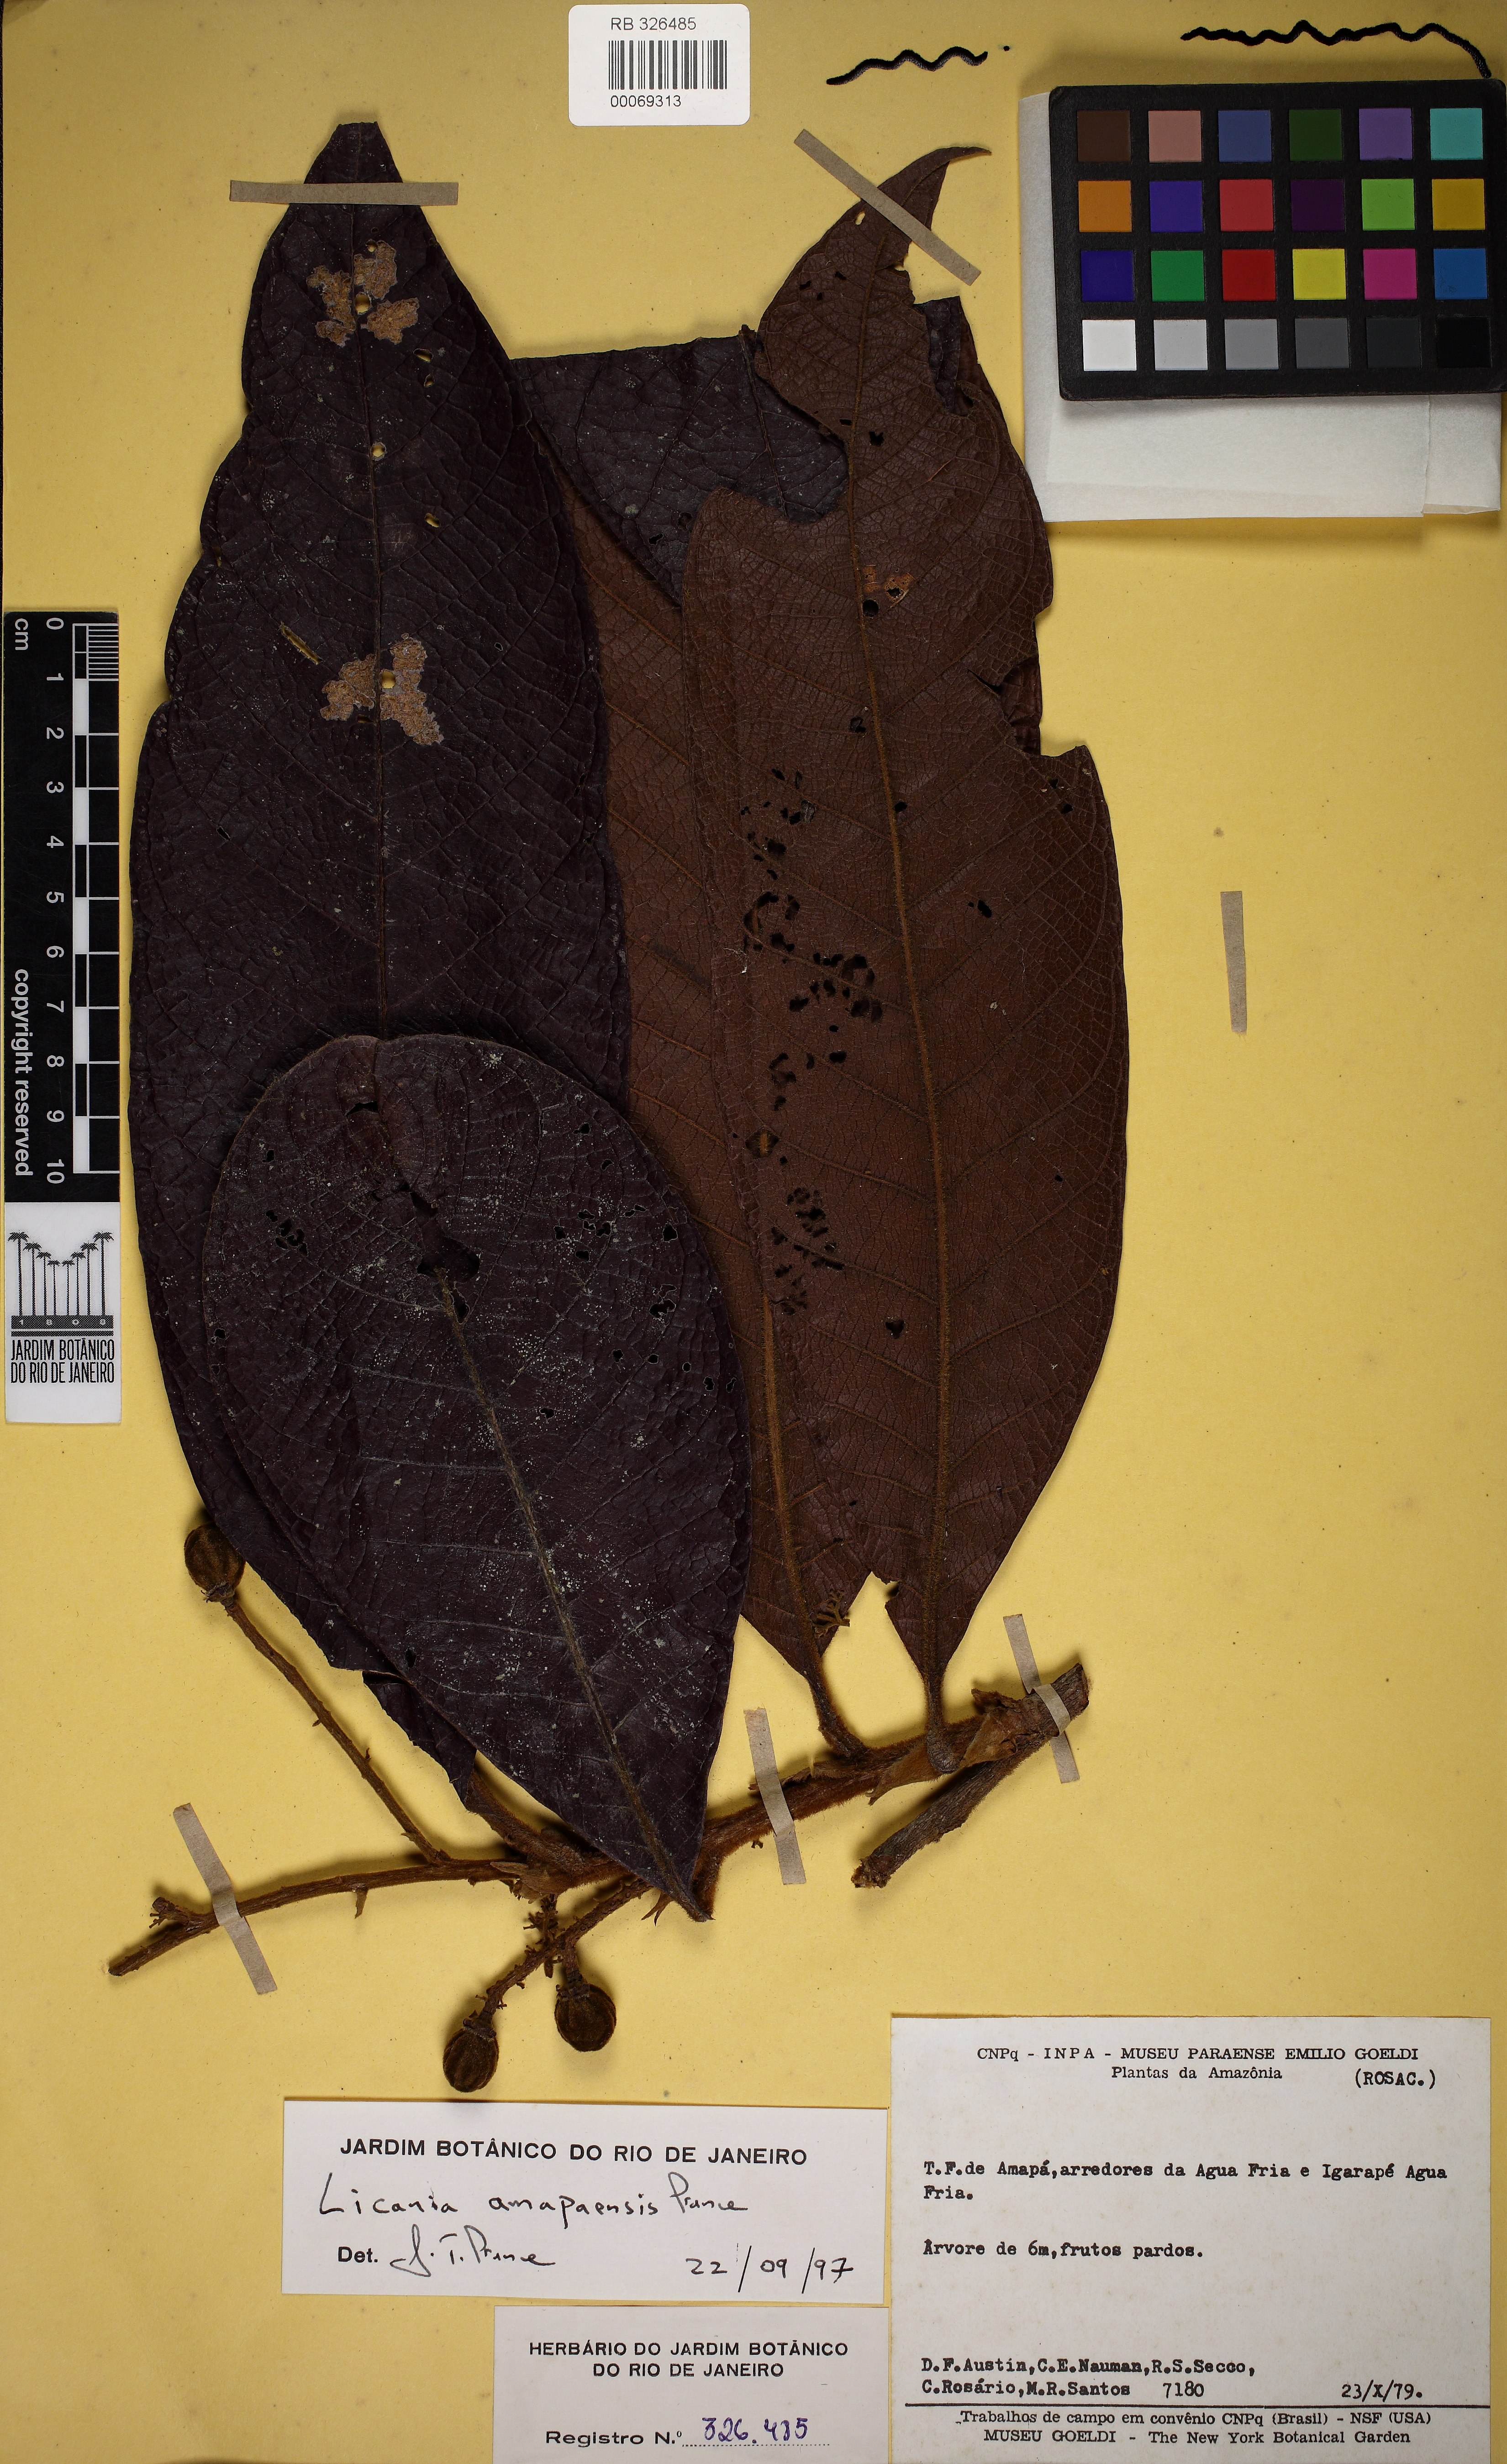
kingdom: Plantae
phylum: Tracheophyta
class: Magnoliopsida
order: Malpighiales
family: Chrysobalanaceae
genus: Hymenopus
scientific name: Hymenopus amapaensis
